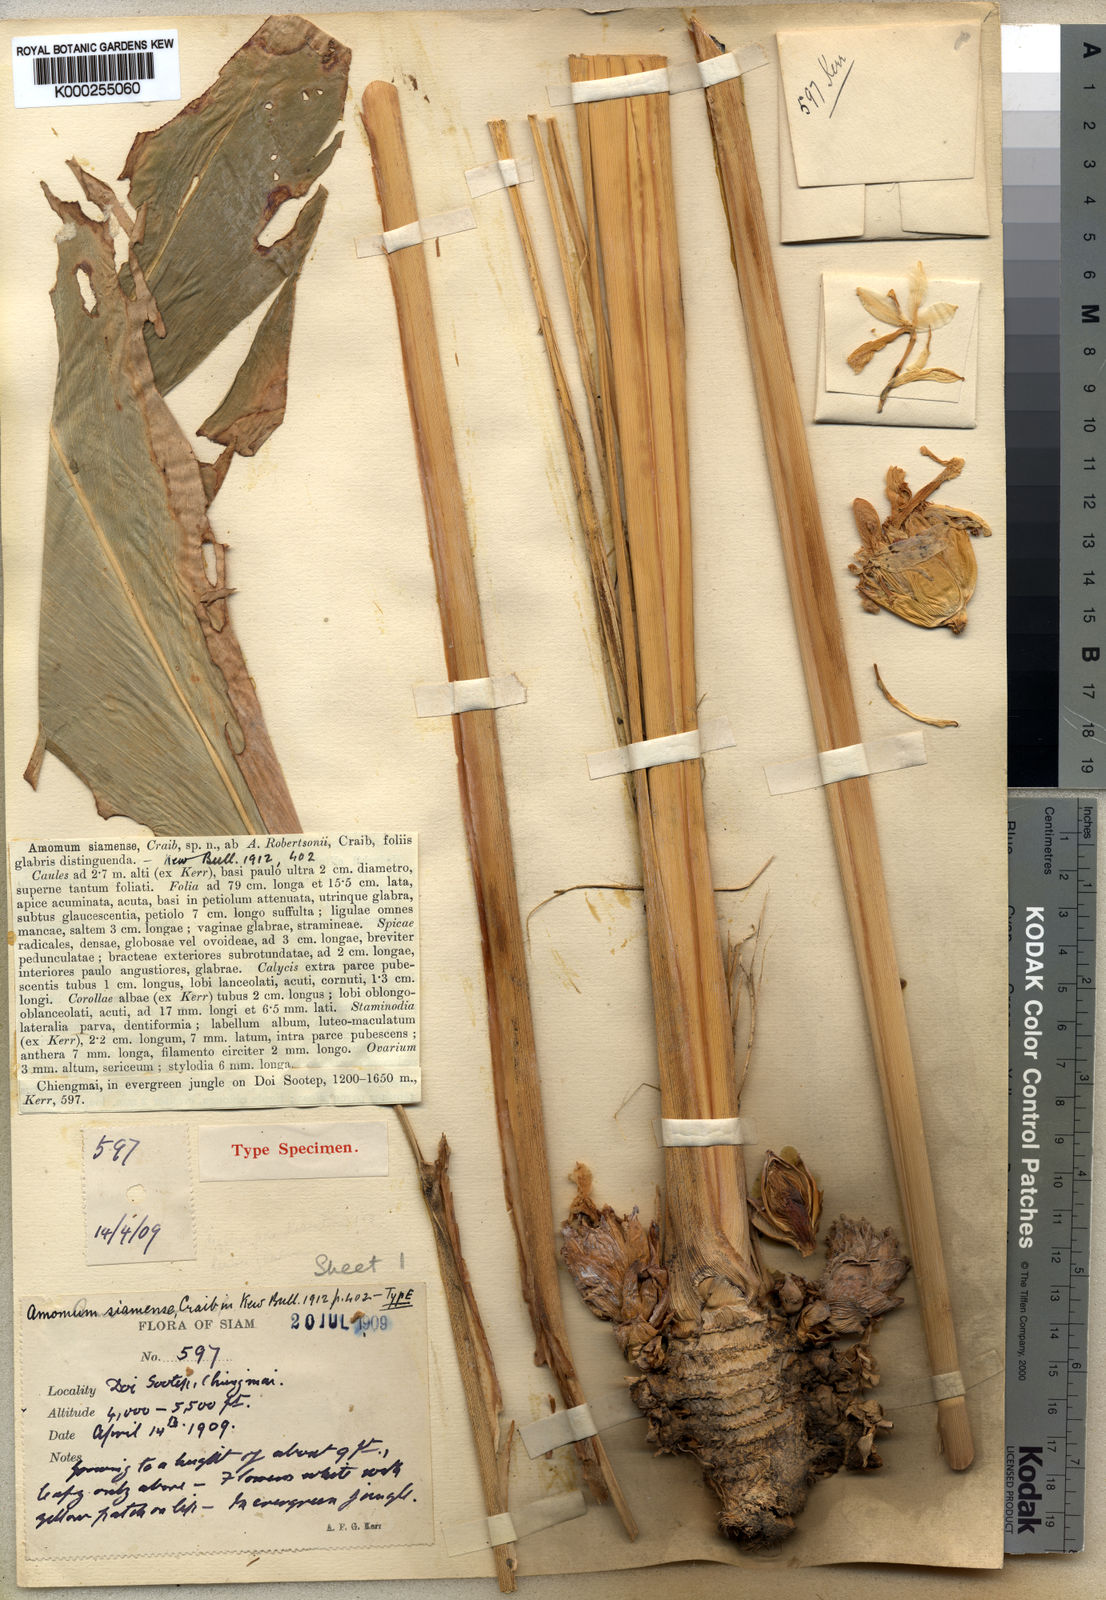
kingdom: Plantae
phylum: Tracheophyta
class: Liliopsida
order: Zingiberales
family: Zingiberaceae
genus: Amomum
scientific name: Amomum siamense
